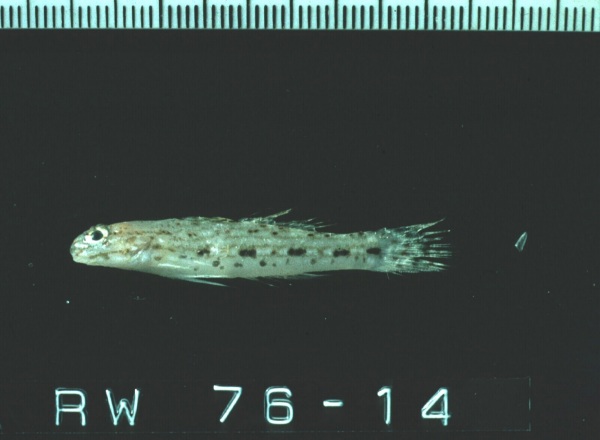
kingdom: Animalia
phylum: Chordata
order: Perciformes
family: Gobiidae
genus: Istigobius
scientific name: Istigobius decoratus
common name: Decorated goby
